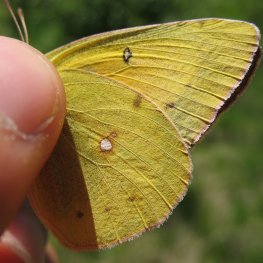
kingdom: Animalia
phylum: Arthropoda
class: Insecta
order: Lepidoptera
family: Pieridae
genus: Colias
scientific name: Colias eurytheme
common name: Orange Sulphur
